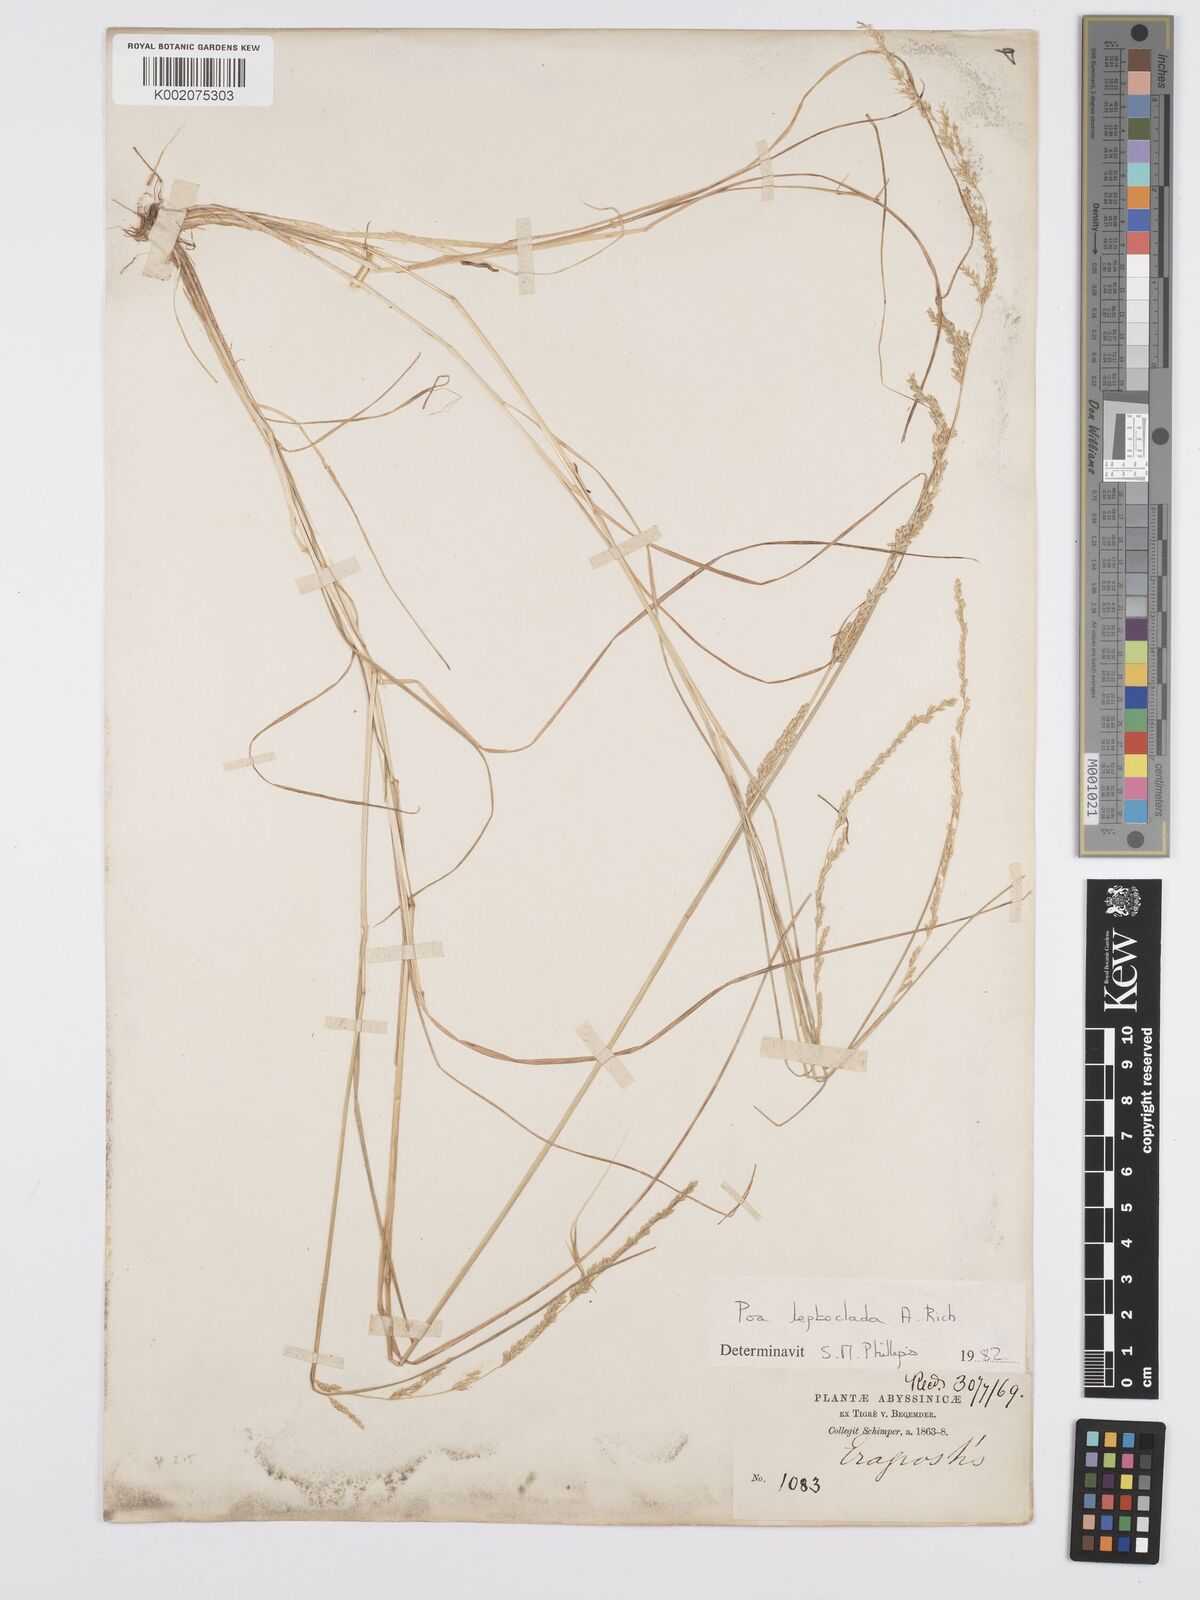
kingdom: Plantae
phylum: Tracheophyta
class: Liliopsida
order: Poales
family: Poaceae
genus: Poa
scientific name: Poa leptoclada
